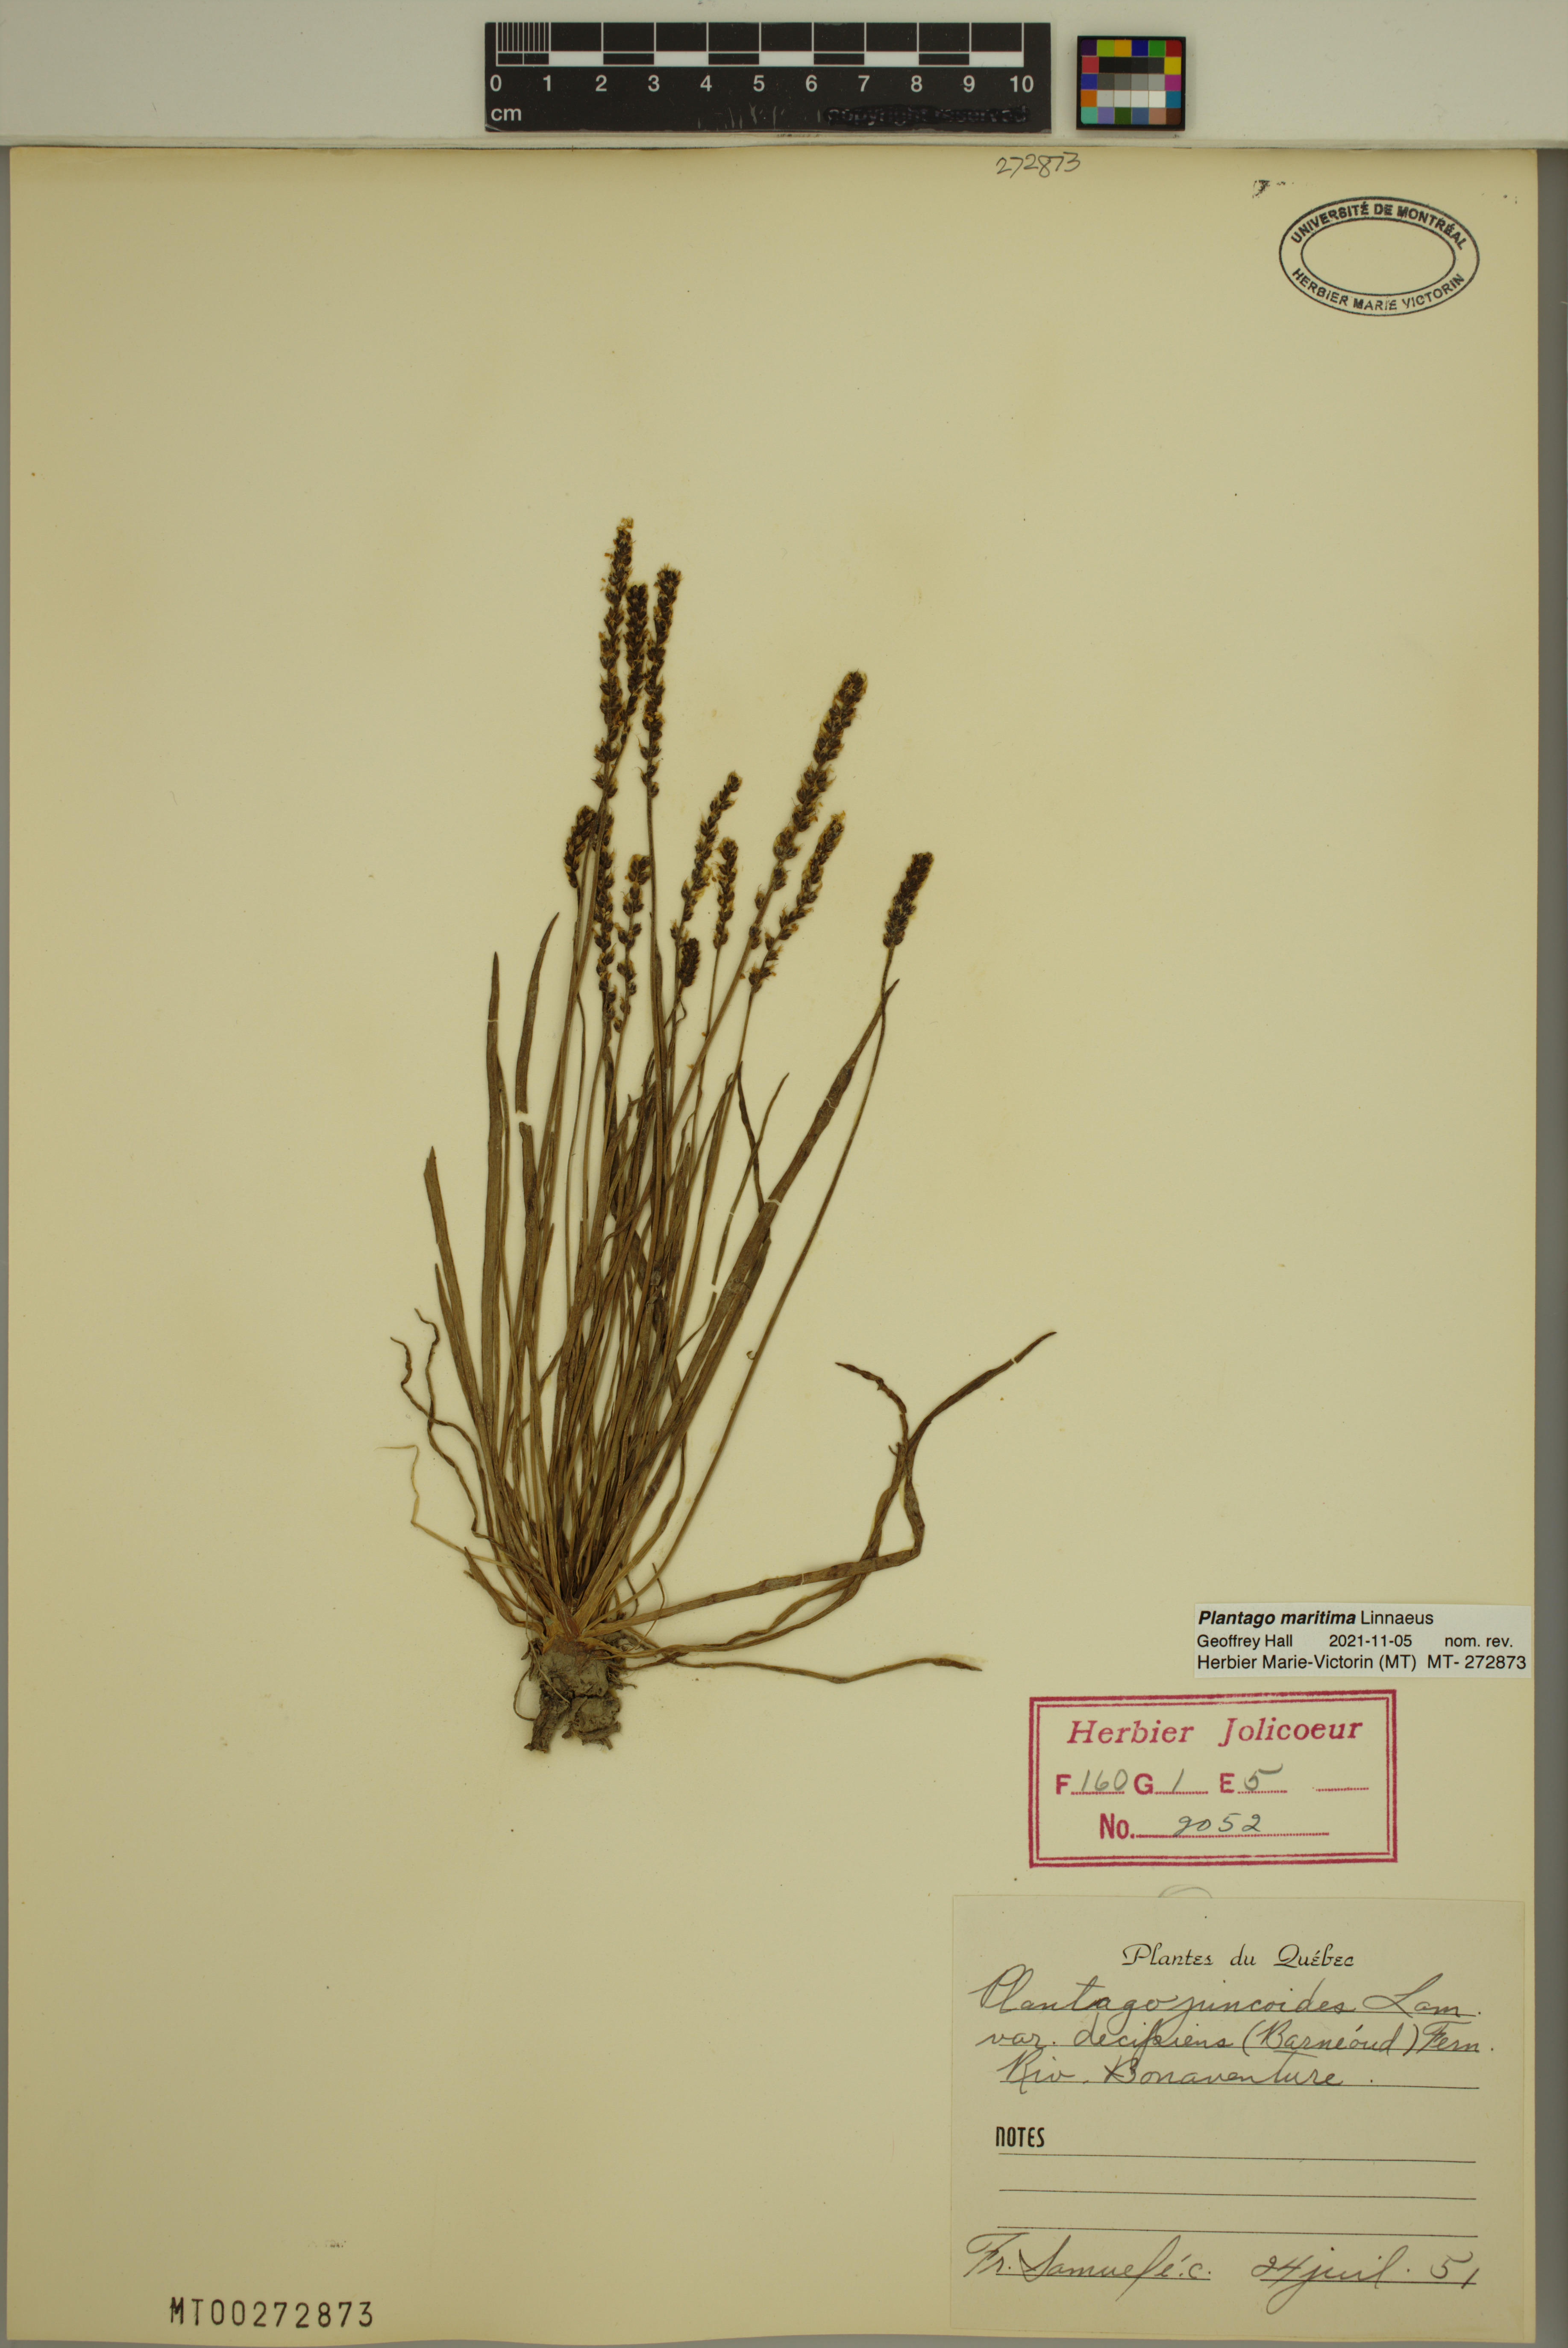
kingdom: Plantae
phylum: Tracheophyta
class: Magnoliopsida
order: Lamiales
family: Plantaginaceae
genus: Plantago
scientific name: Plantago maritima
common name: Sea plantain
